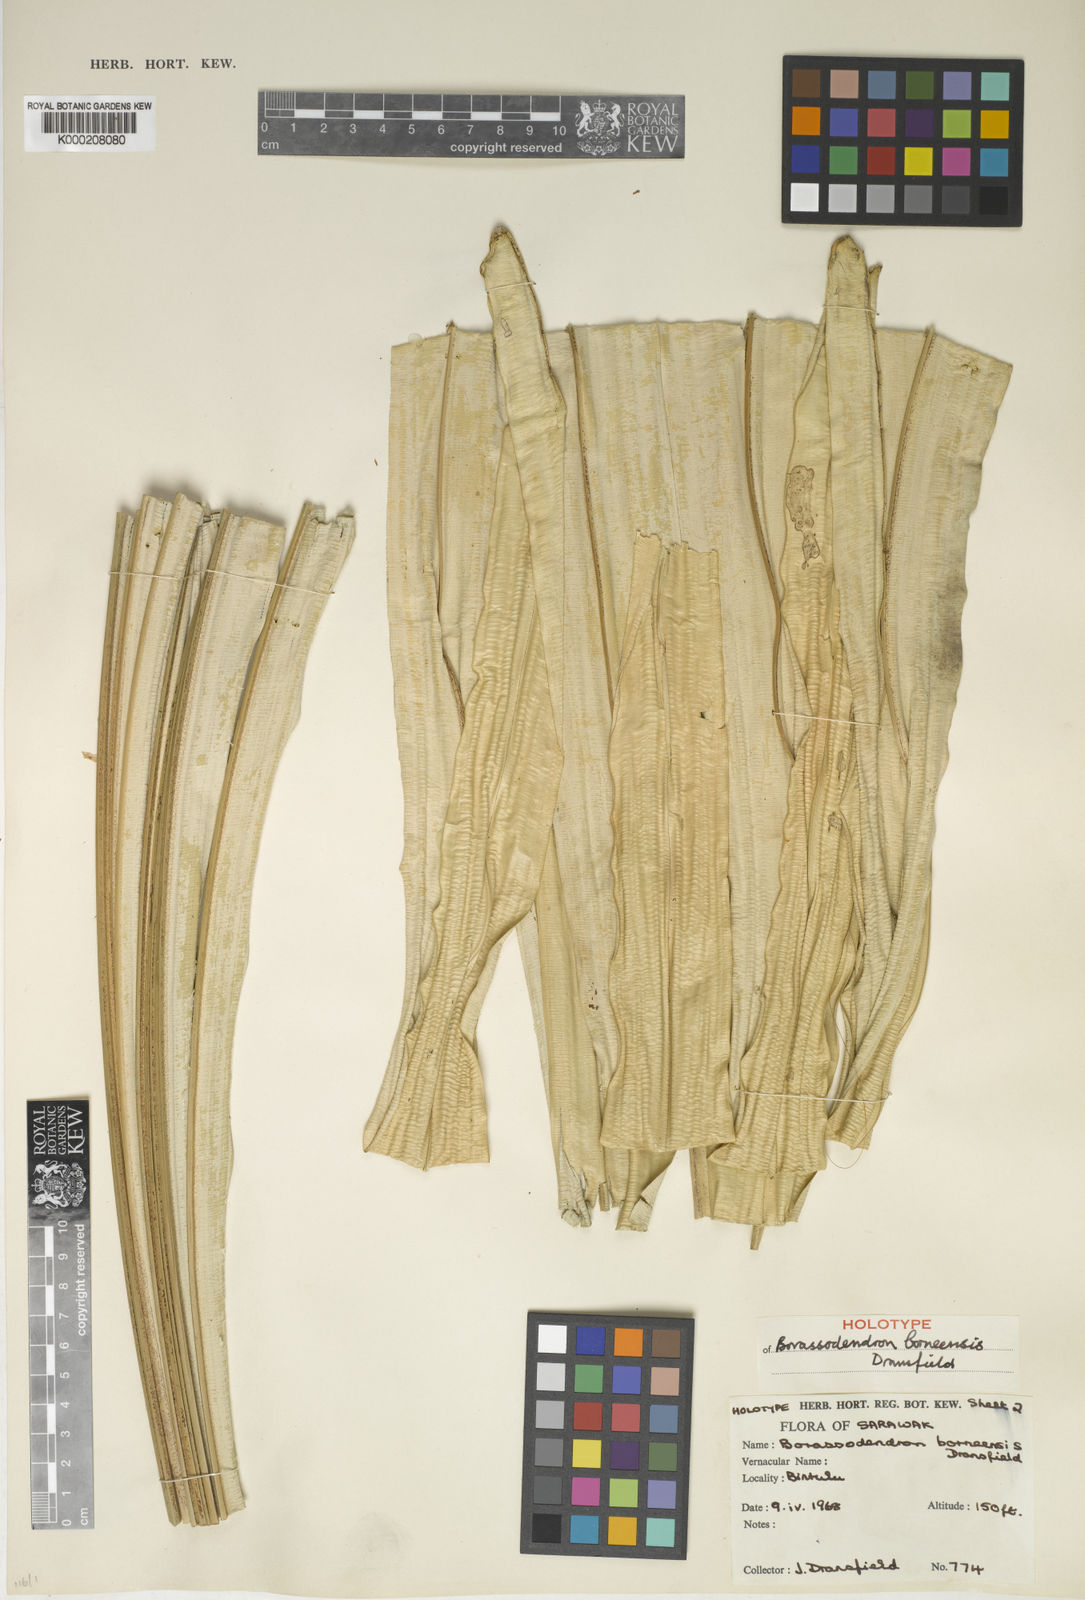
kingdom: Plantae
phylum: Tracheophyta
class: Liliopsida
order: Arecales
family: Arecaceae
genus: Borassodendron
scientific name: Borassodendron borneense
